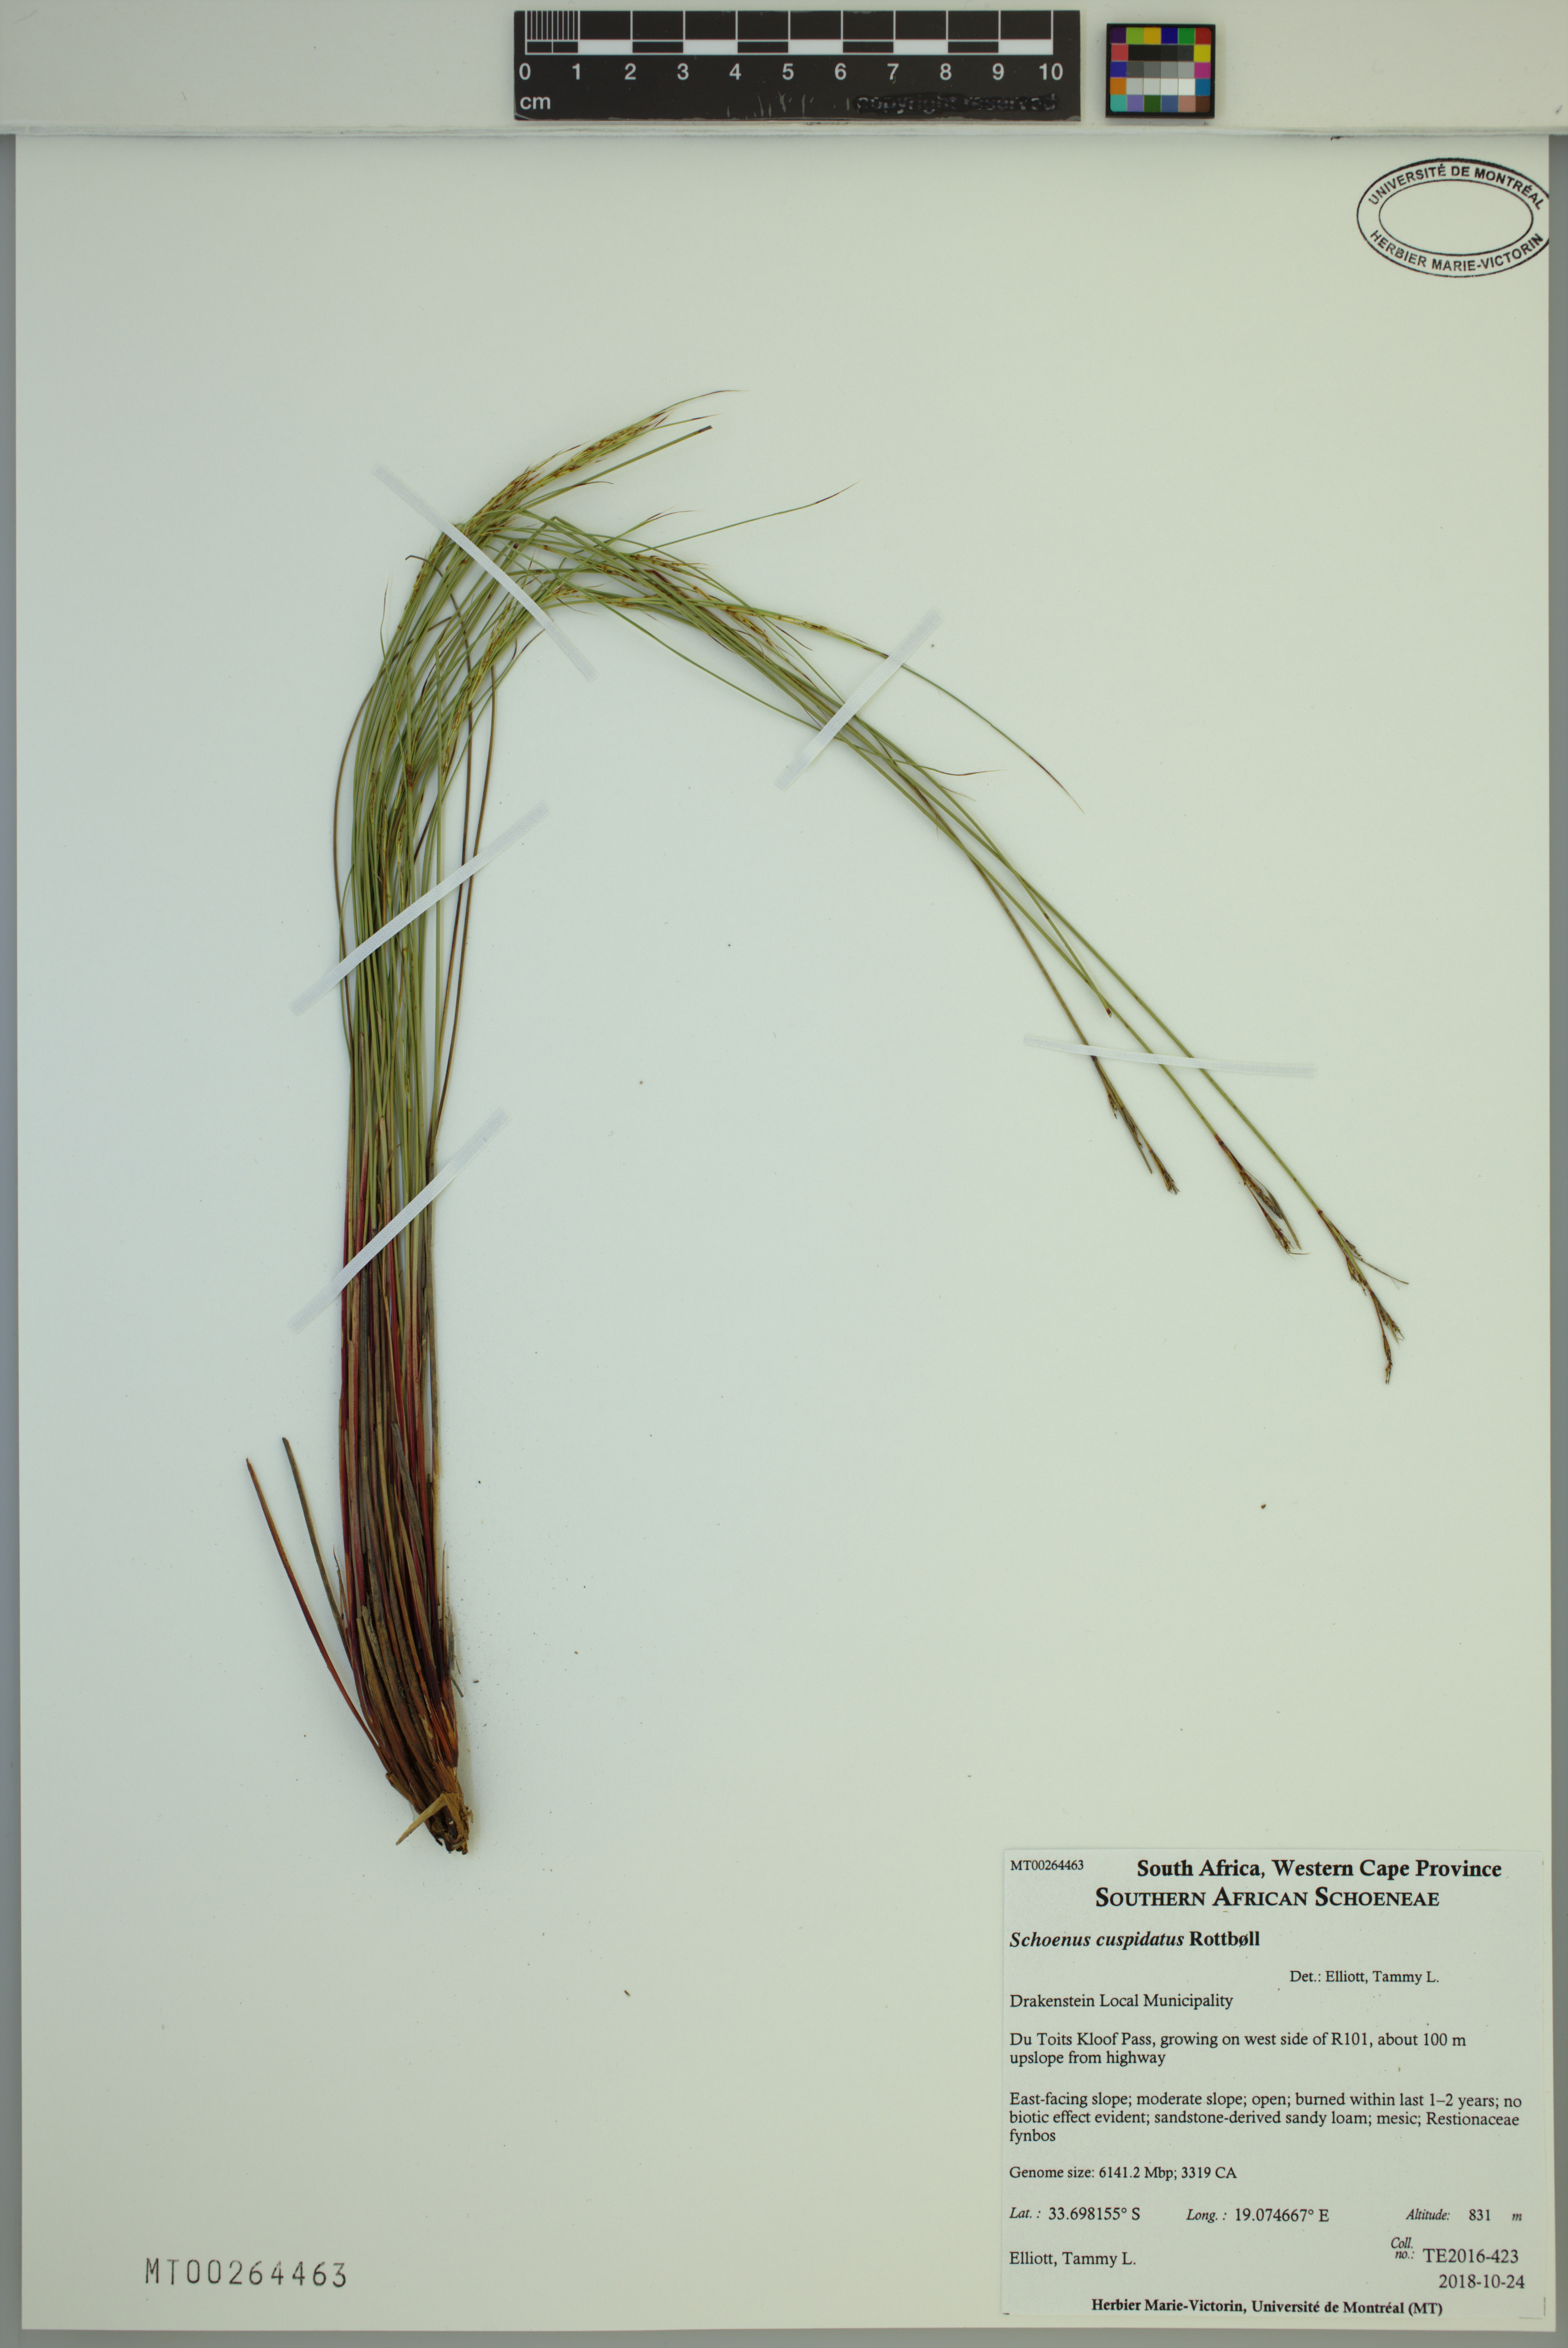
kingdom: Plantae
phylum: Tracheophyta
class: Liliopsida
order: Poales
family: Cyperaceae
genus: Schoenus
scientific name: Schoenus cuspidatus
